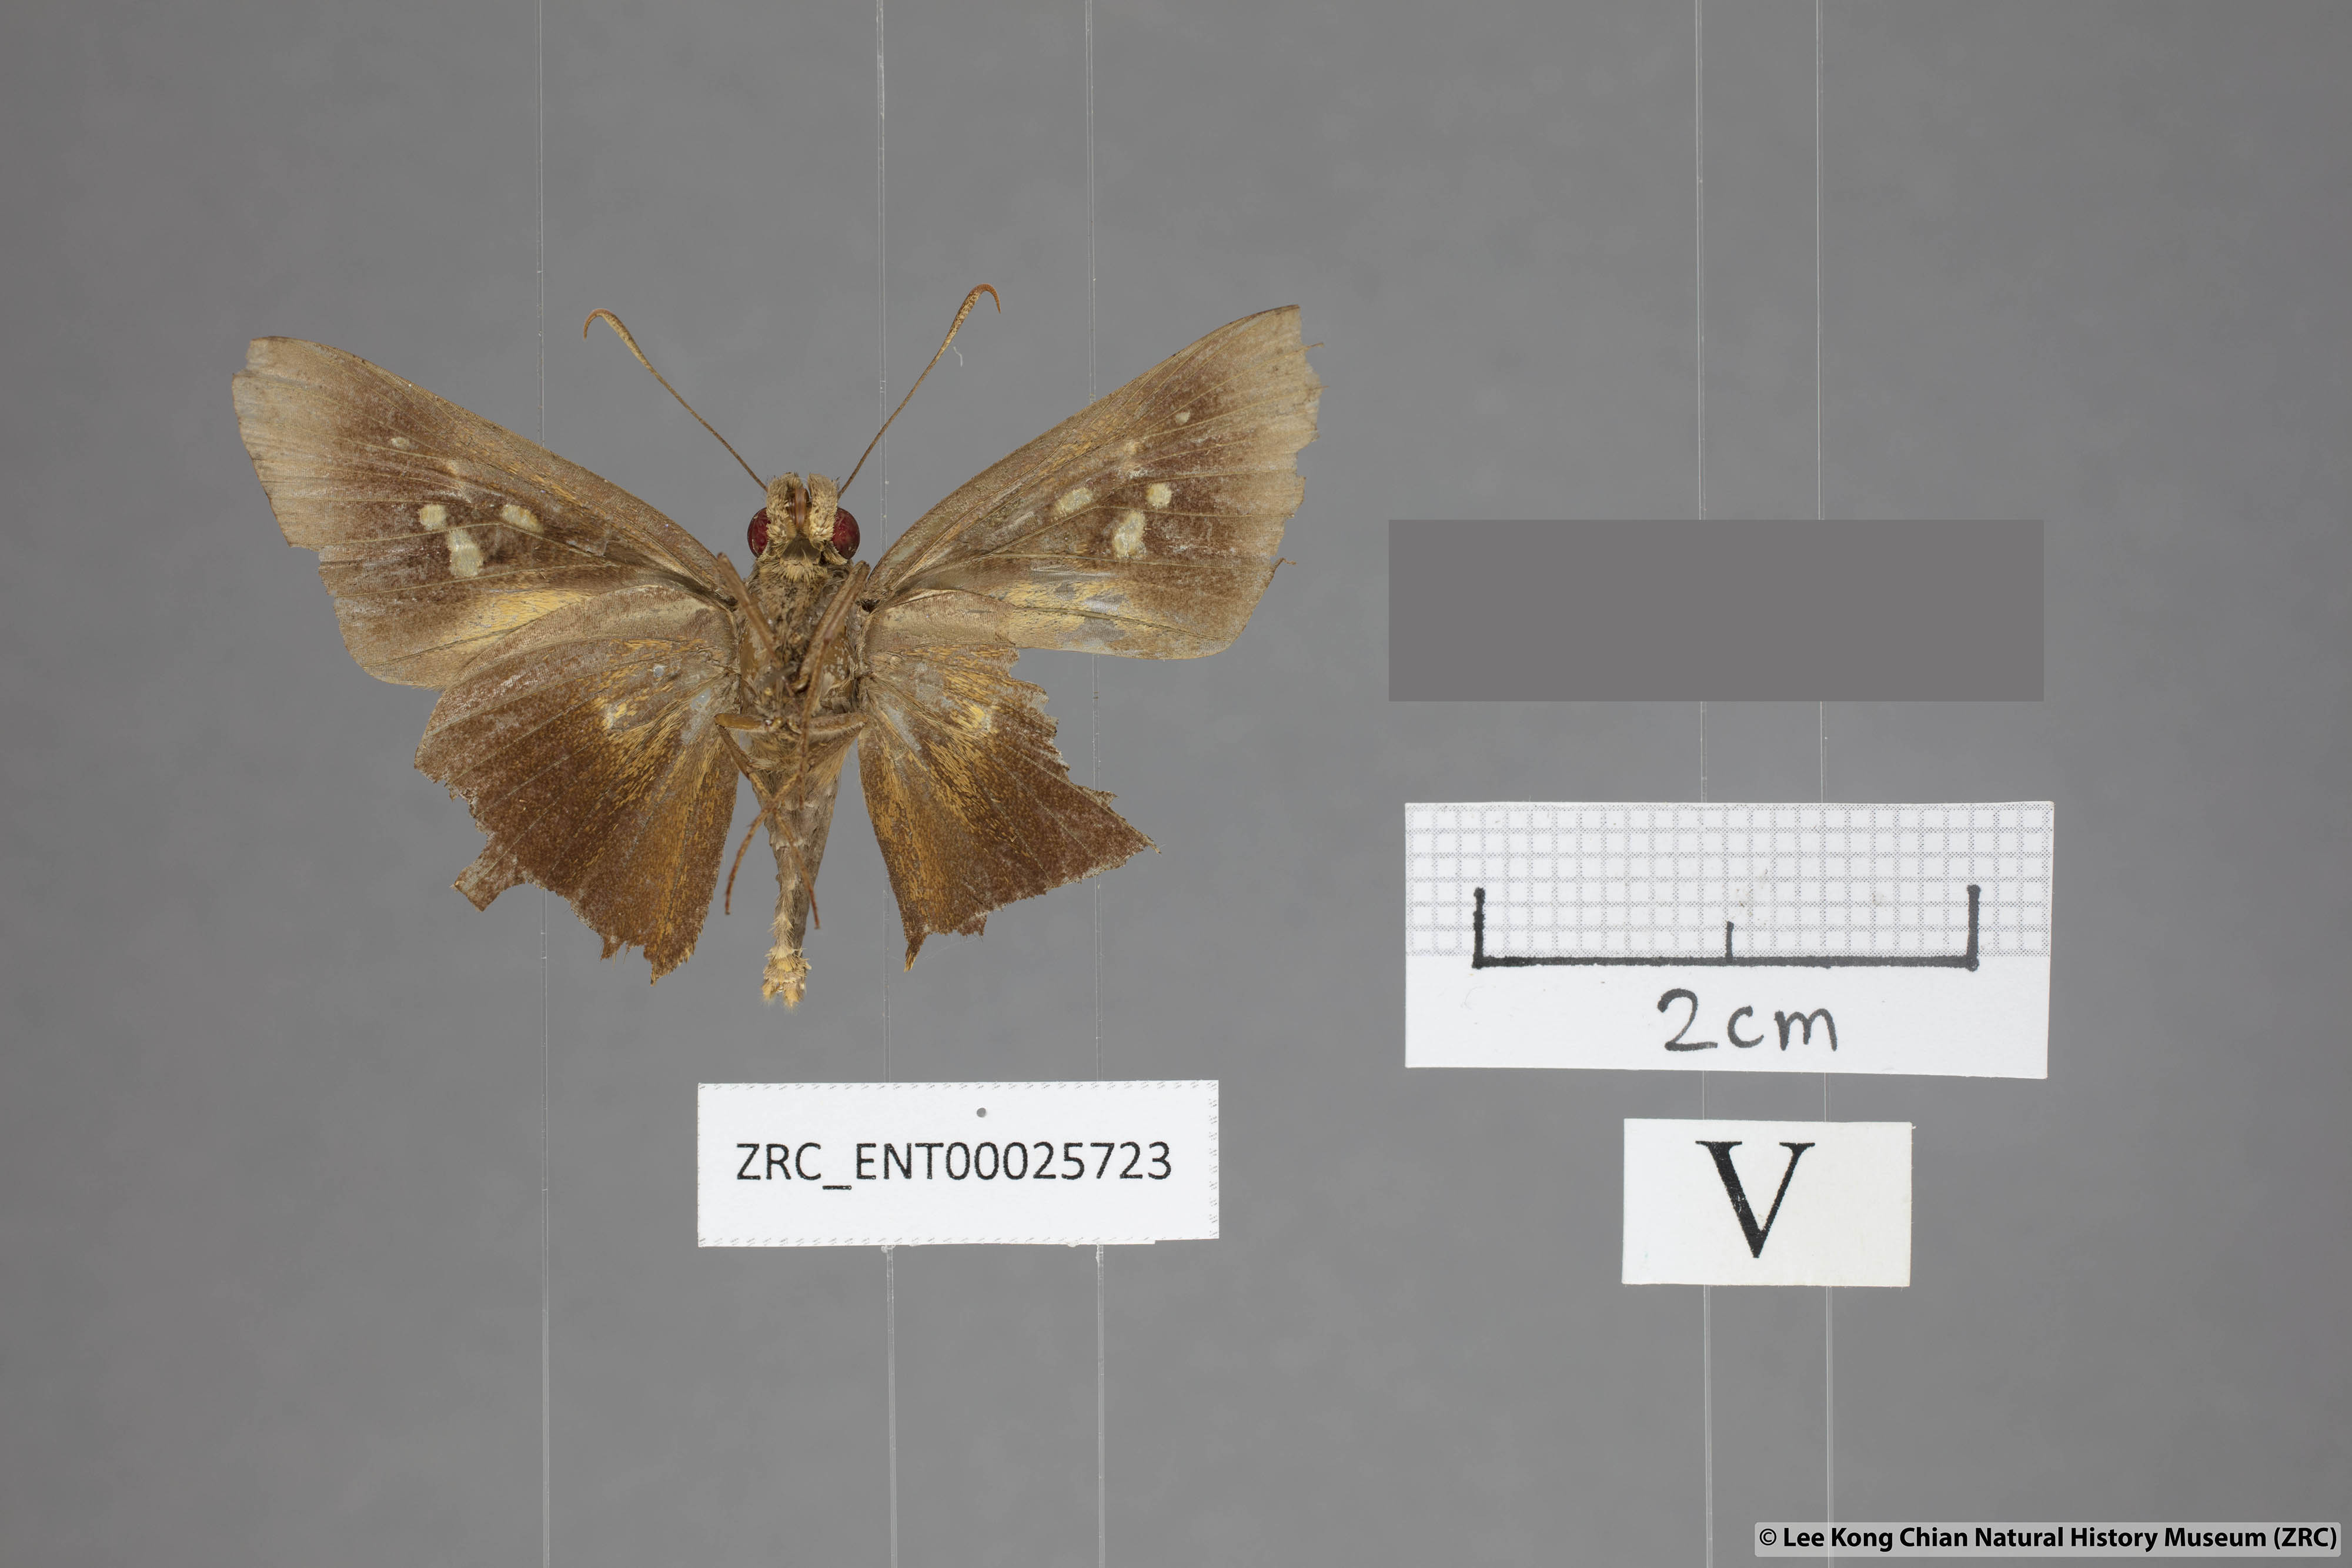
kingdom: Animalia
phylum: Arthropoda
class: Insecta
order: Lepidoptera
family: Hesperiidae
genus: Zela
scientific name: Zela zeus
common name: Orange-ciliate palmer
